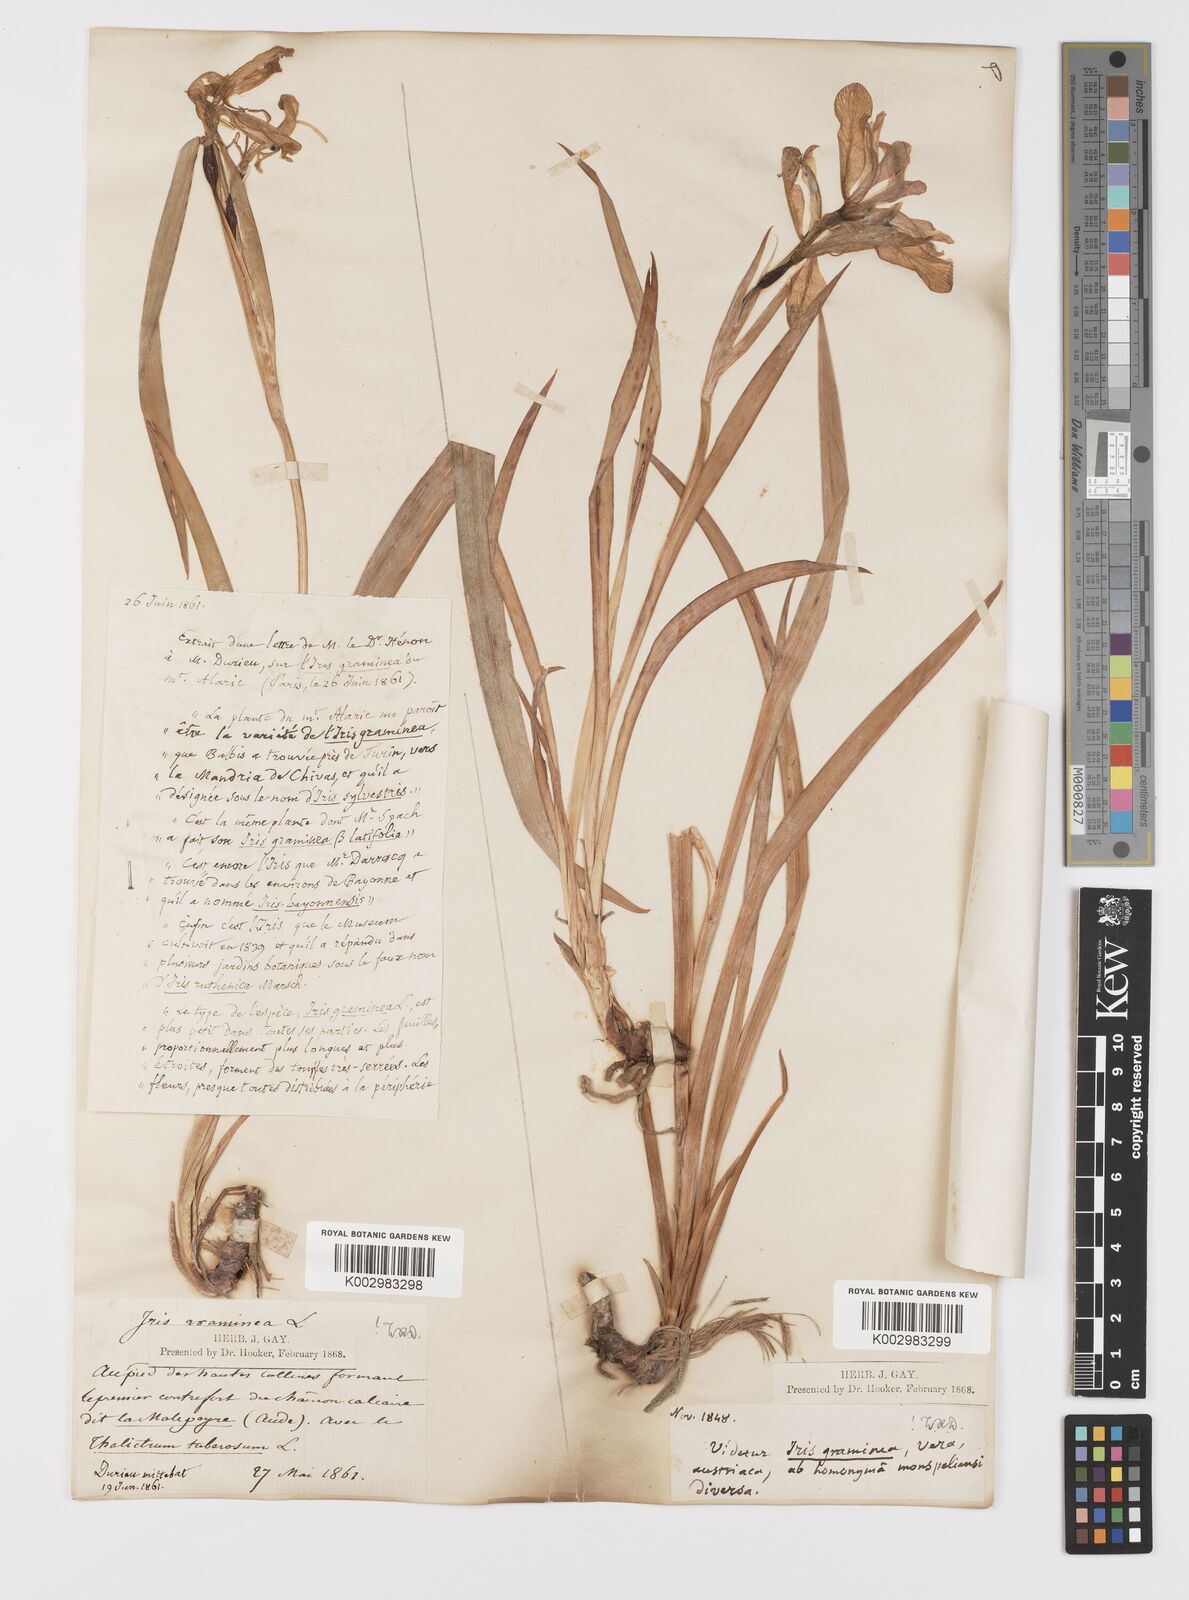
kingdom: Plantae
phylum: Tracheophyta
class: Liliopsida
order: Asparagales
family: Iridaceae
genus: Iris
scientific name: Iris graminea
